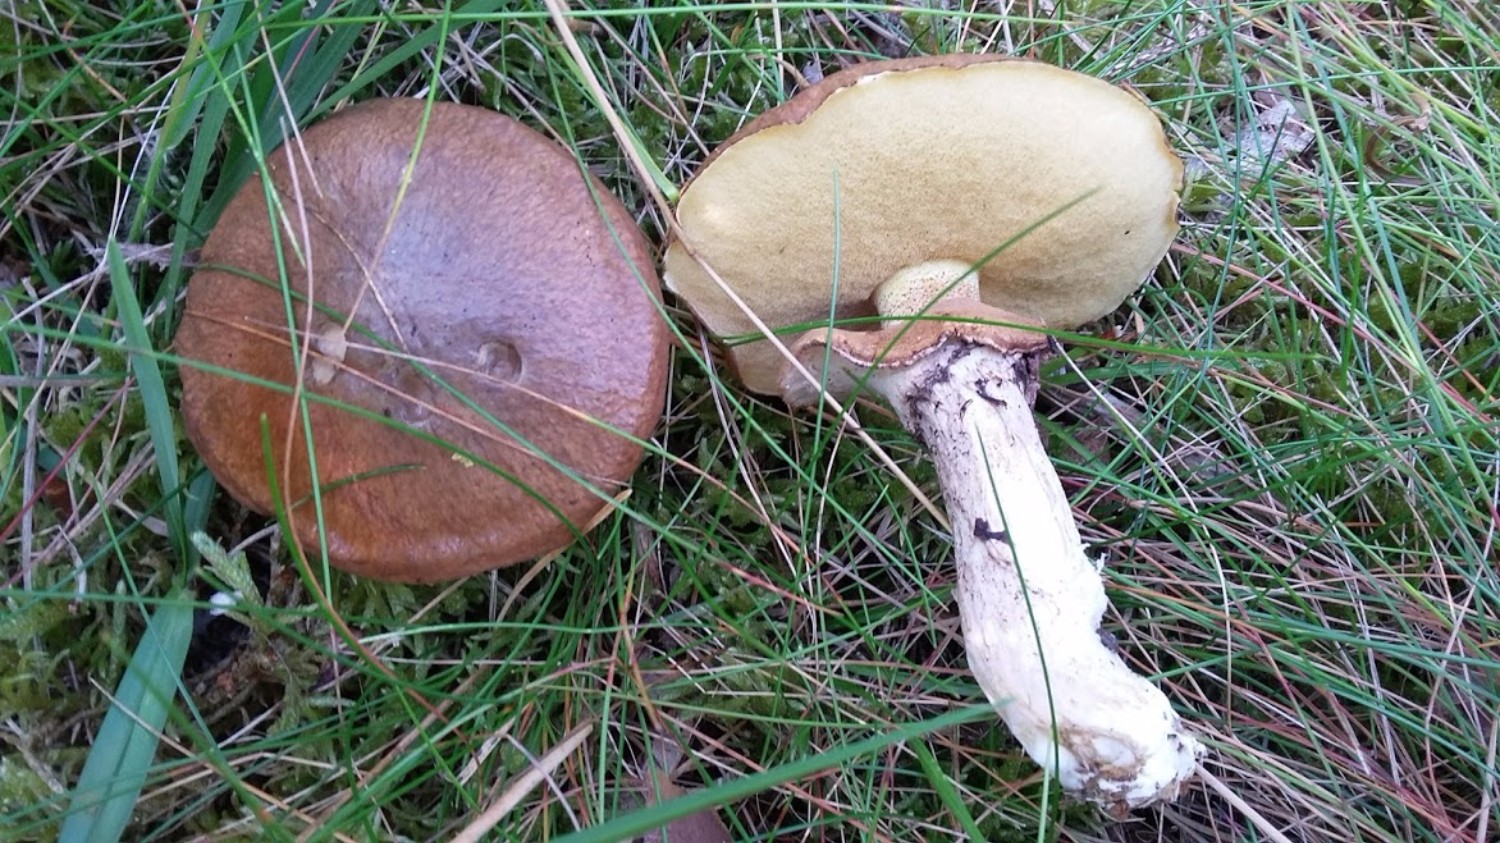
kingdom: Fungi
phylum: Basidiomycota
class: Agaricomycetes
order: Boletales
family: Suillaceae
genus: Suillus
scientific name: Suillus luteus
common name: brungul slimrørhat
